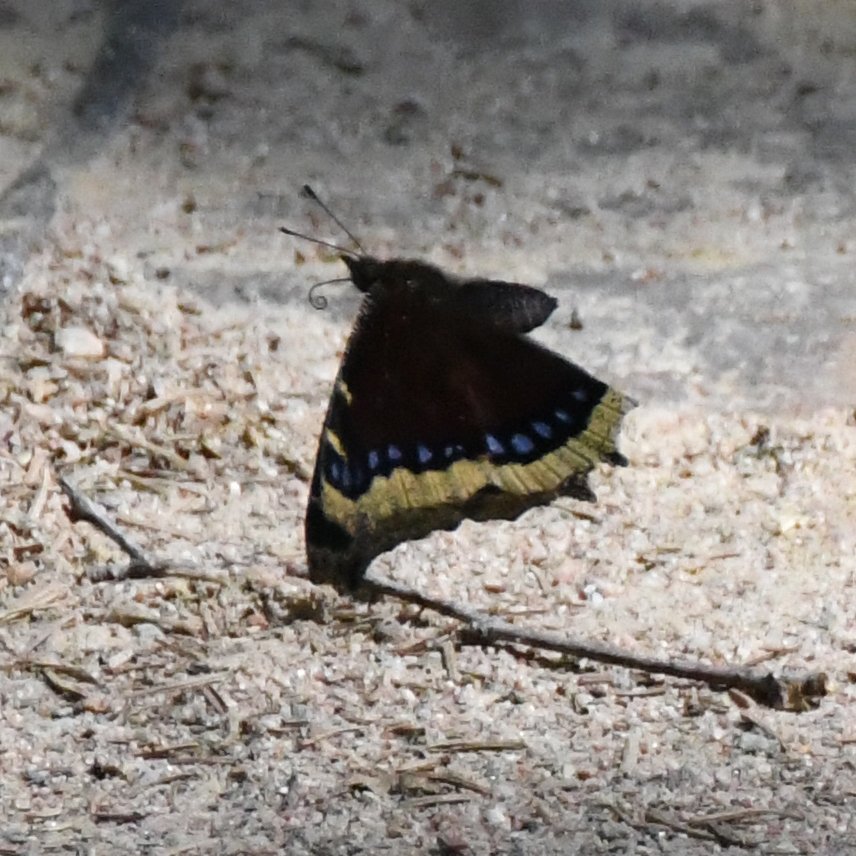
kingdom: Animalia
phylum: Arthropoda
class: Insecta
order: Lepidoptera
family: Nymphalidae
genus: Nymphalis
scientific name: Nymphalis antiopa
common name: Mourning Cloak
